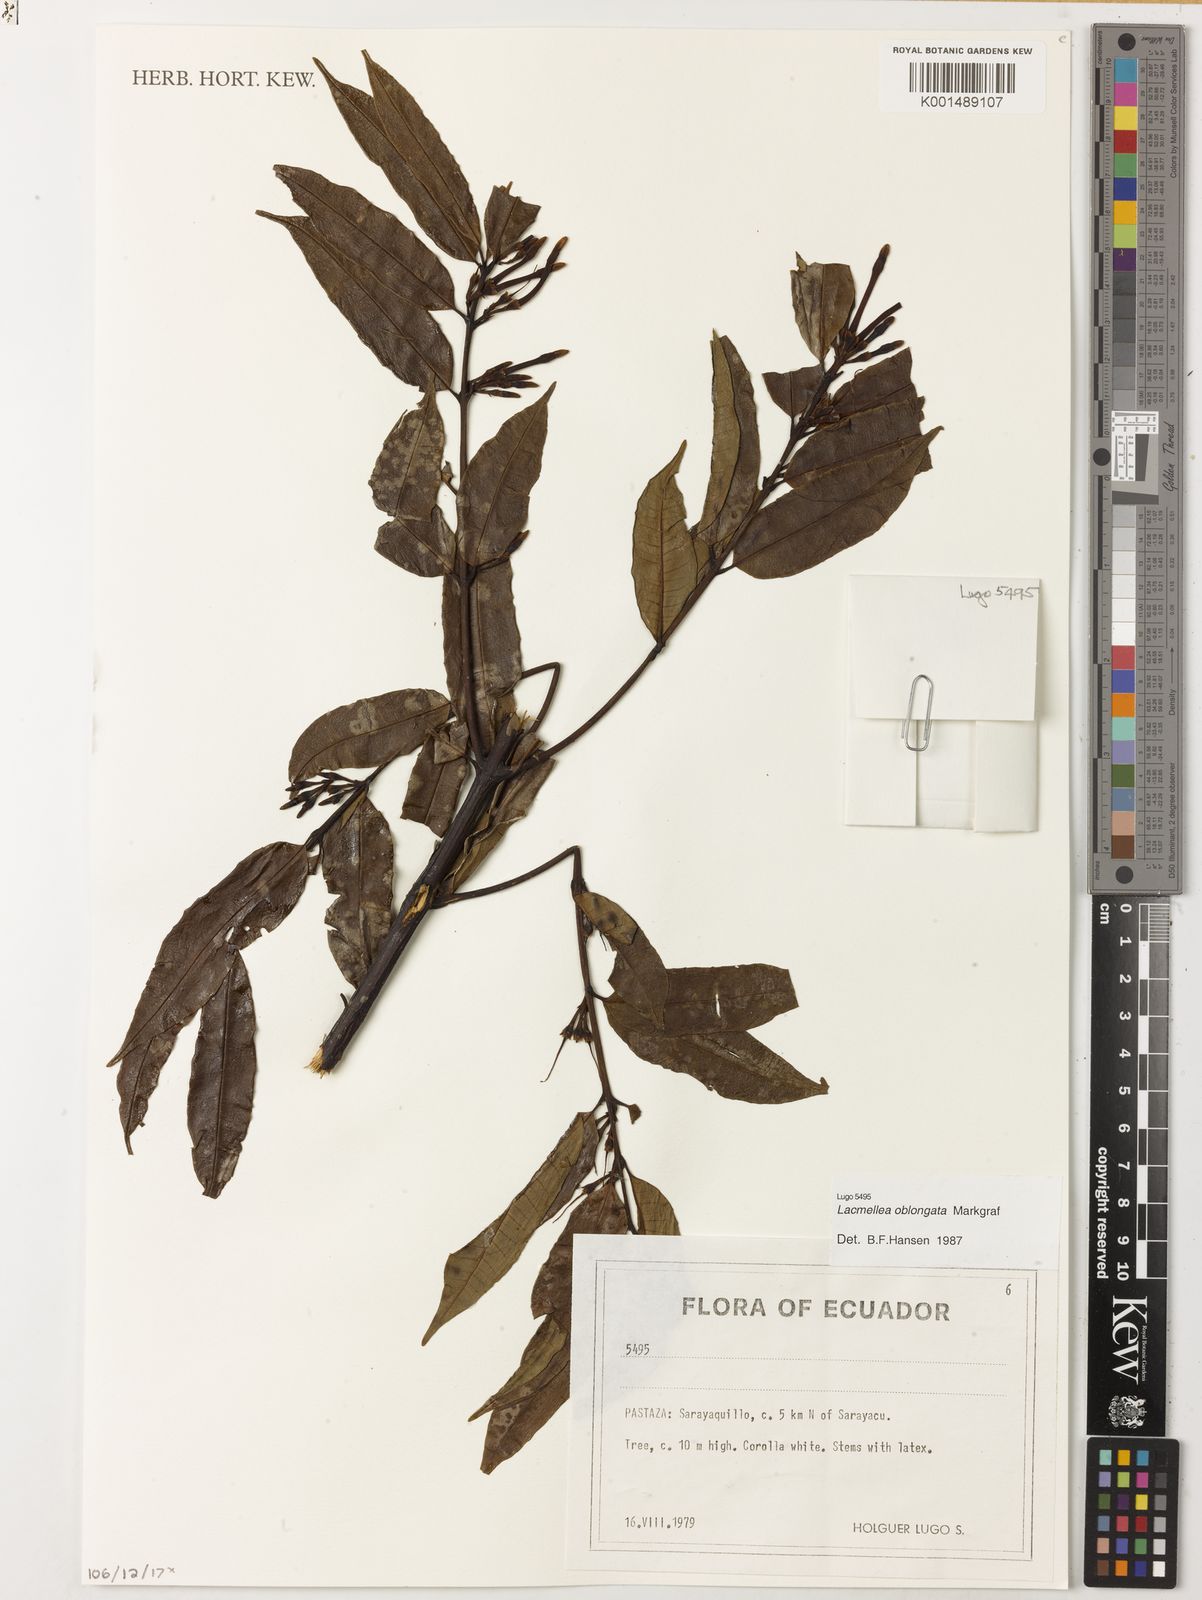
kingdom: Plantae
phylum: Tracheophyta
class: Magnoliopsida
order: Gentianales
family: Apocynaceae
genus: Lacmellea
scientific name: Lacmellea oblongata
